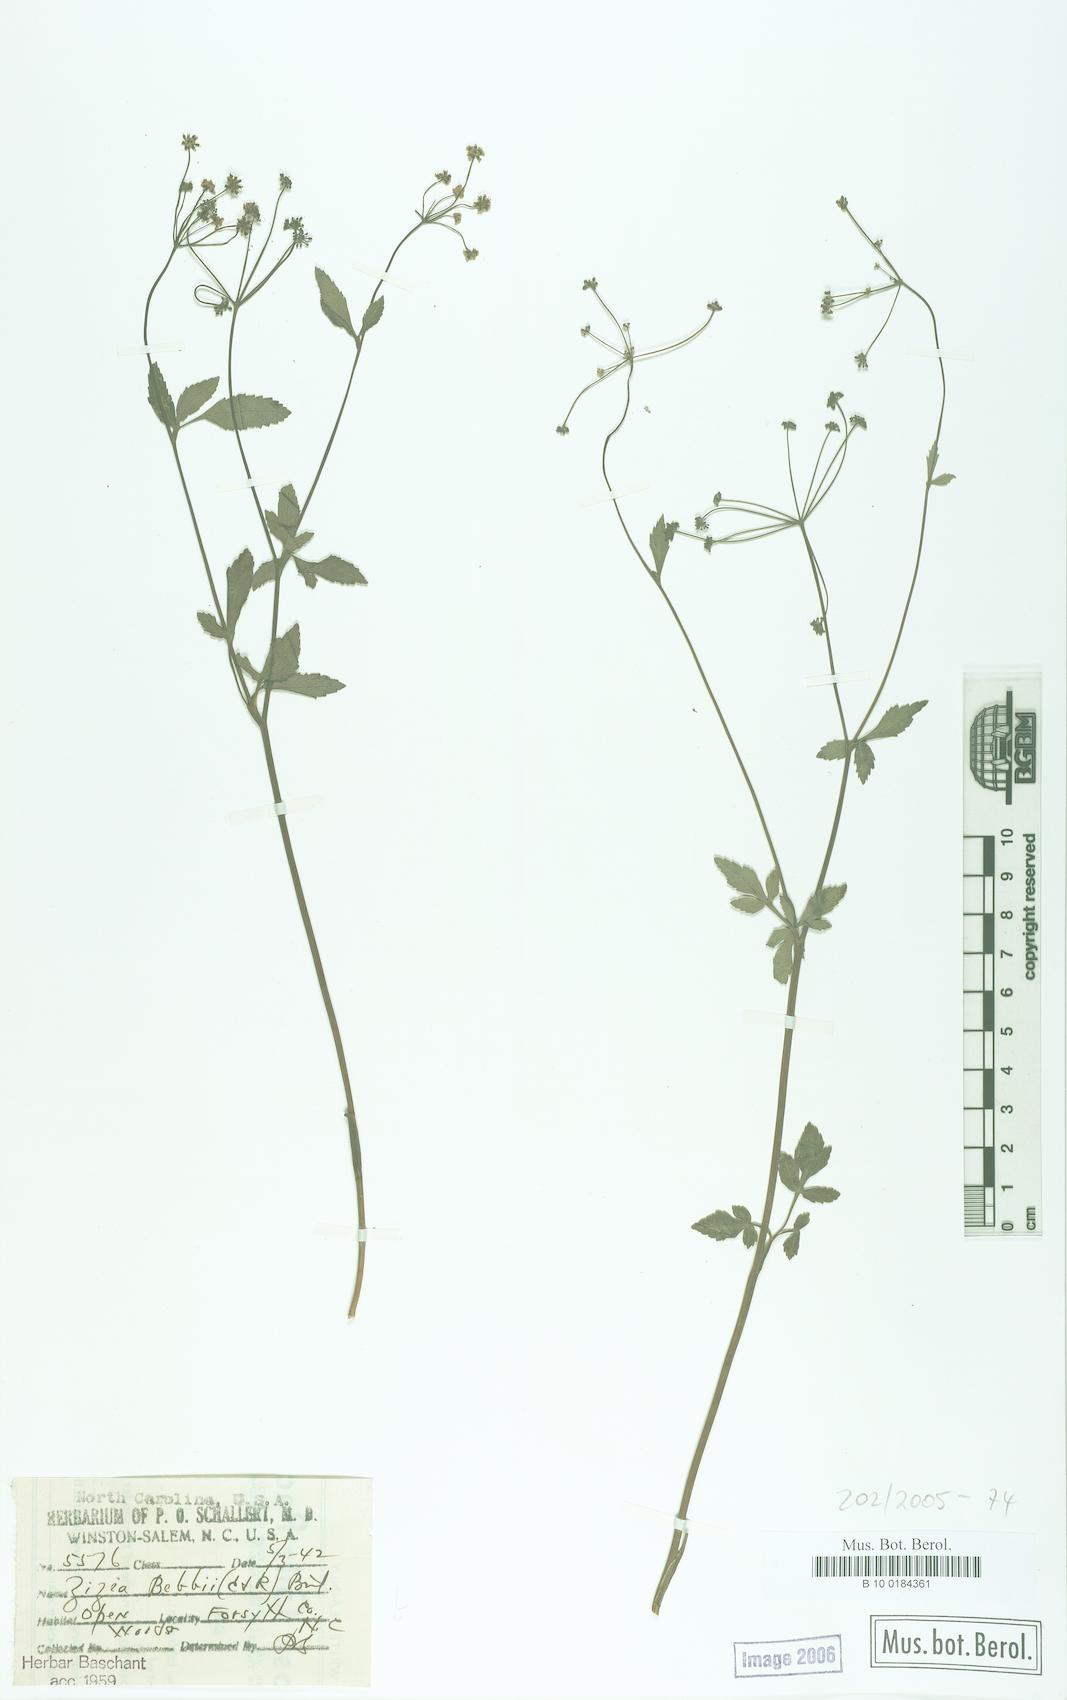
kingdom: Plantae
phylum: Tracheophyta
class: Magnoliopsida
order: Apiales
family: Apiaceae
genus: Zizia
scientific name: Zizia trifoliata
